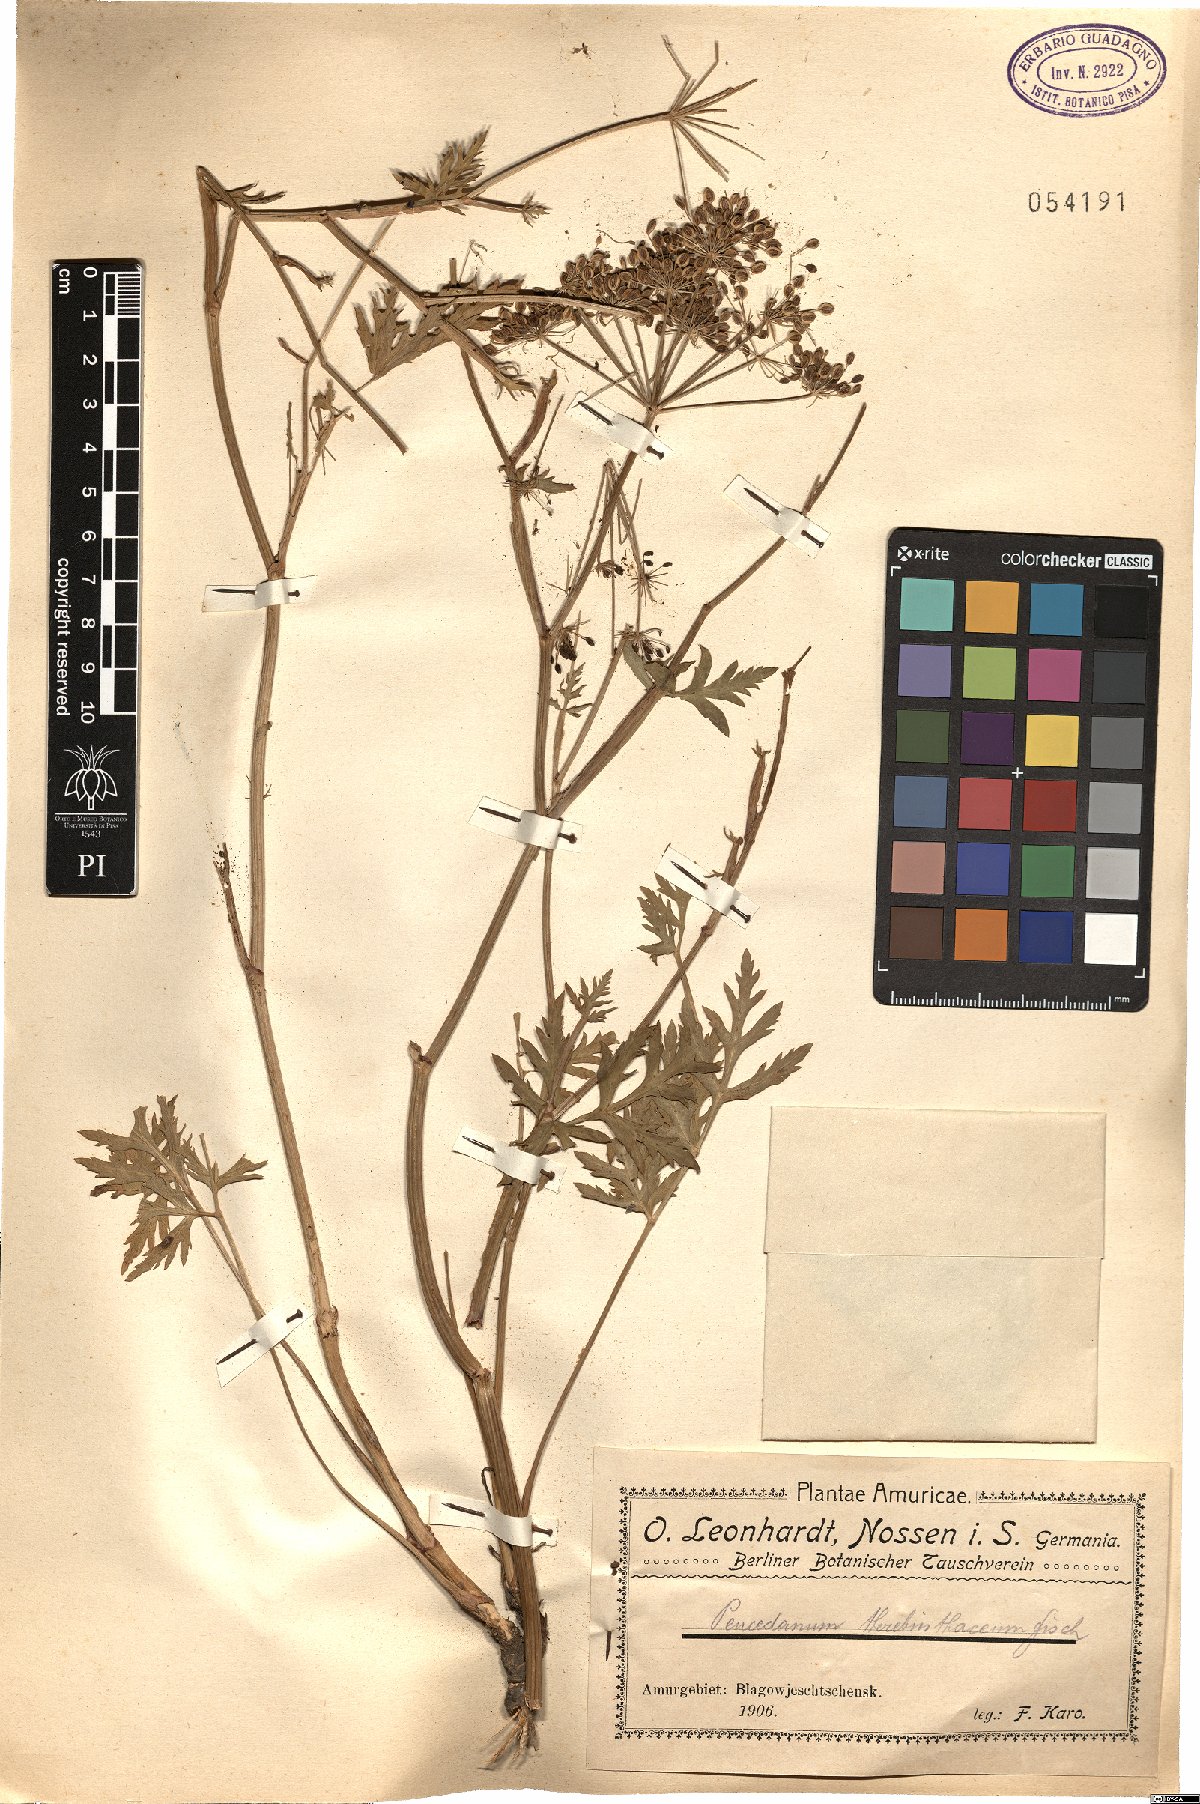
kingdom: Plantae
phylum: Tracheophyta
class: Magnoliopsida
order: Apiales
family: Apiaceae
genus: Kitagawia
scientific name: Kitagawia terebinthacea
